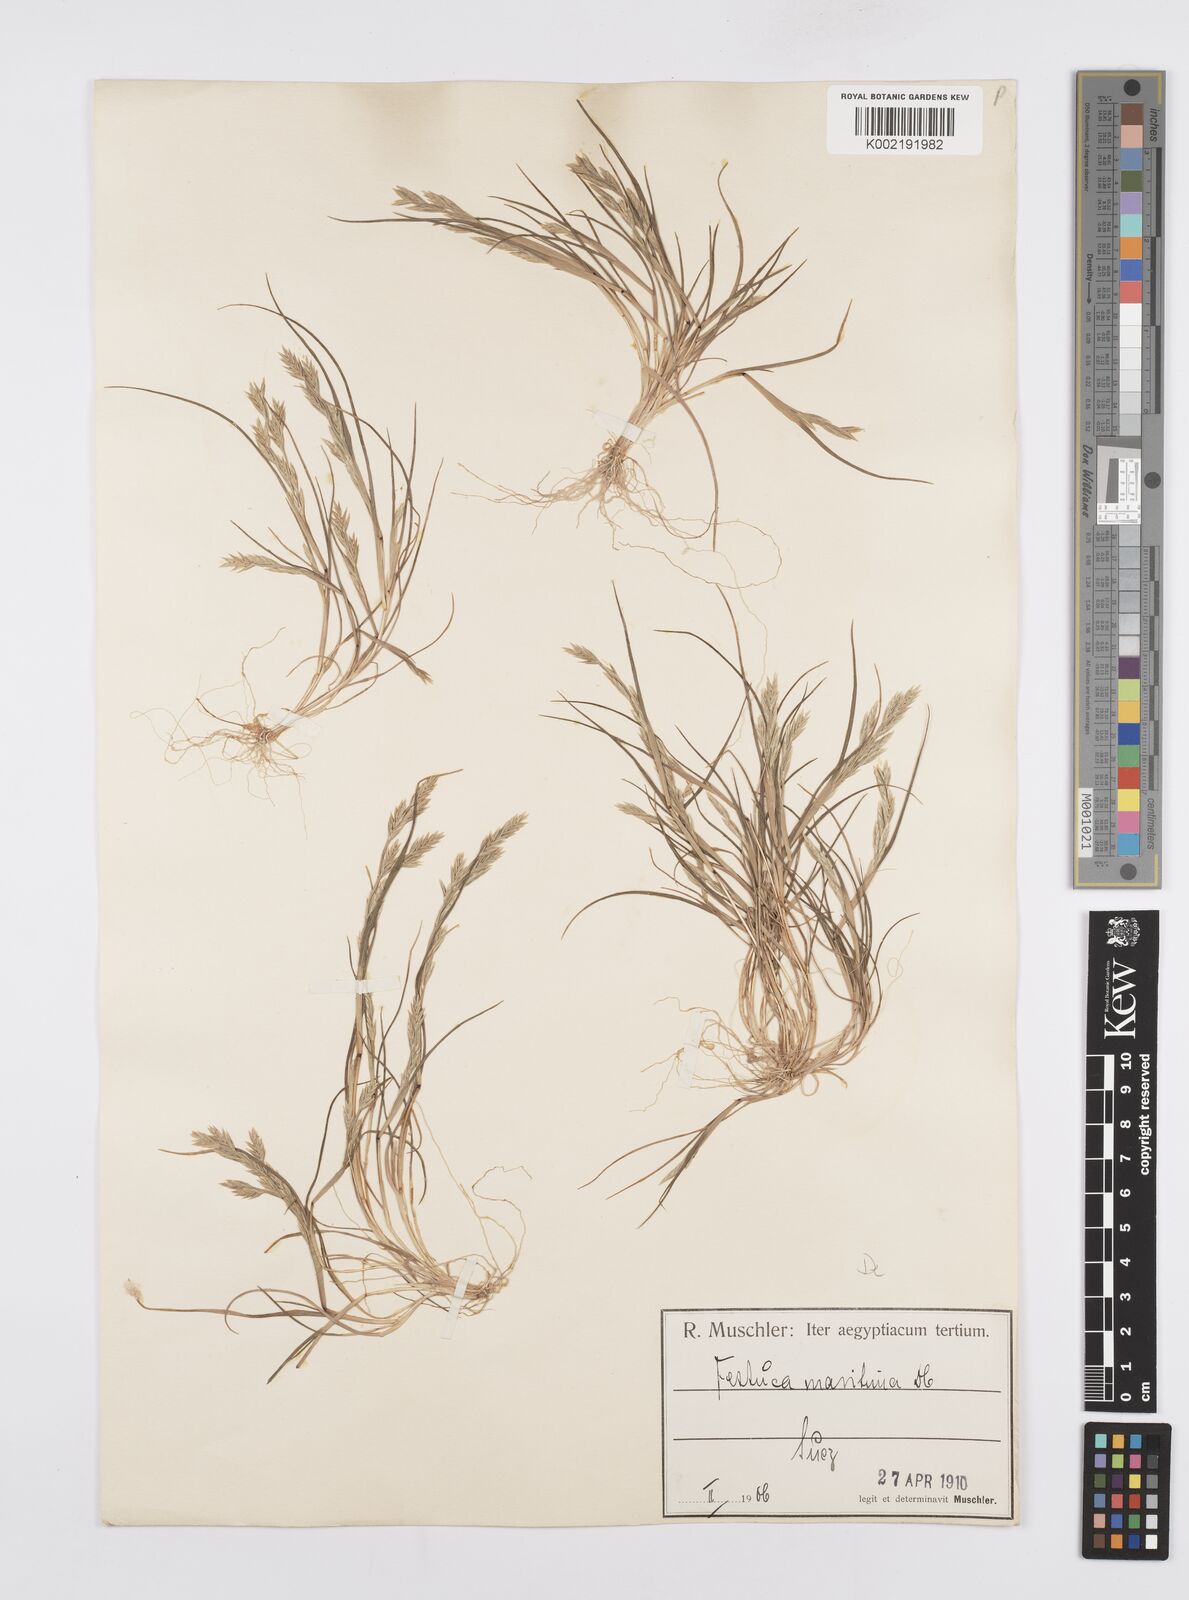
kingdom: Plantae
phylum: Tracheophyta
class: Liliopsida
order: Poales
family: Poaceae
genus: Cutandia
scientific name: Cutandia maritima
